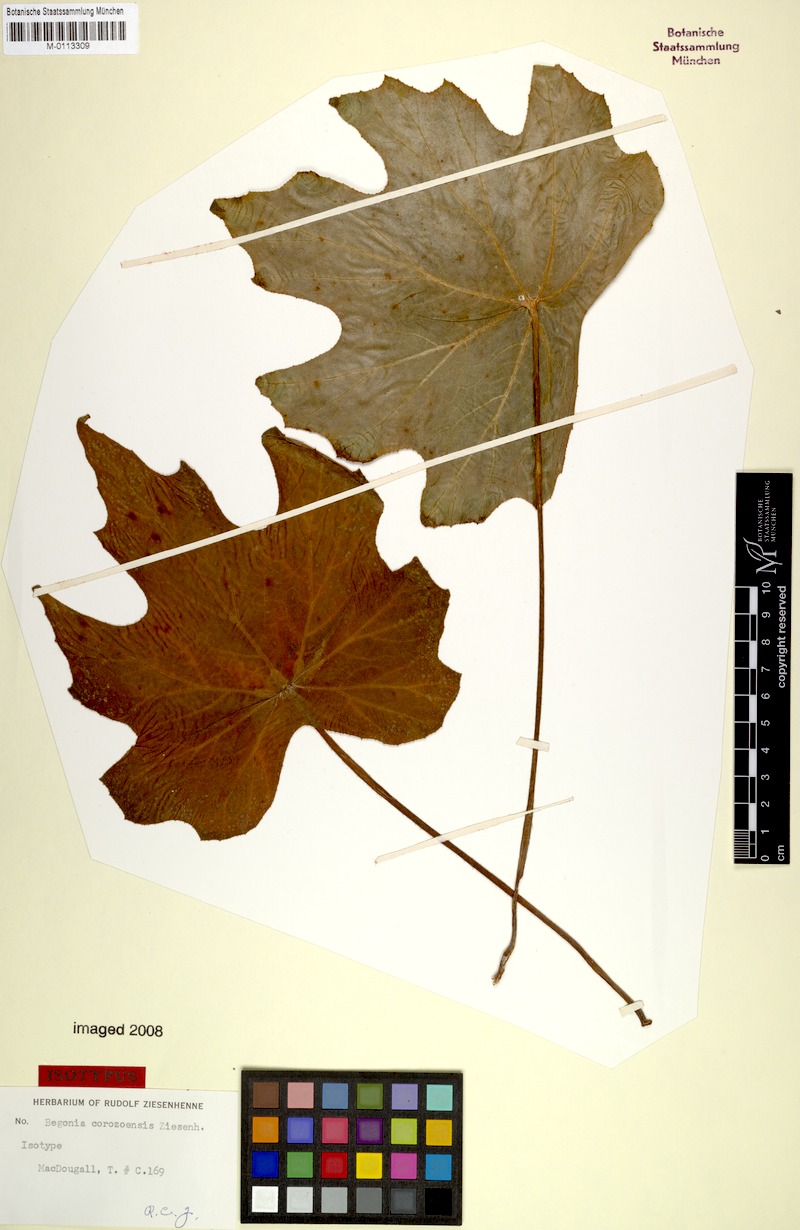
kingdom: Plantae
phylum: Tracheophyta
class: Magnoliopsida
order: Cucurbitales
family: Begoniaceae
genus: Begonia
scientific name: Begonia corzoensis
